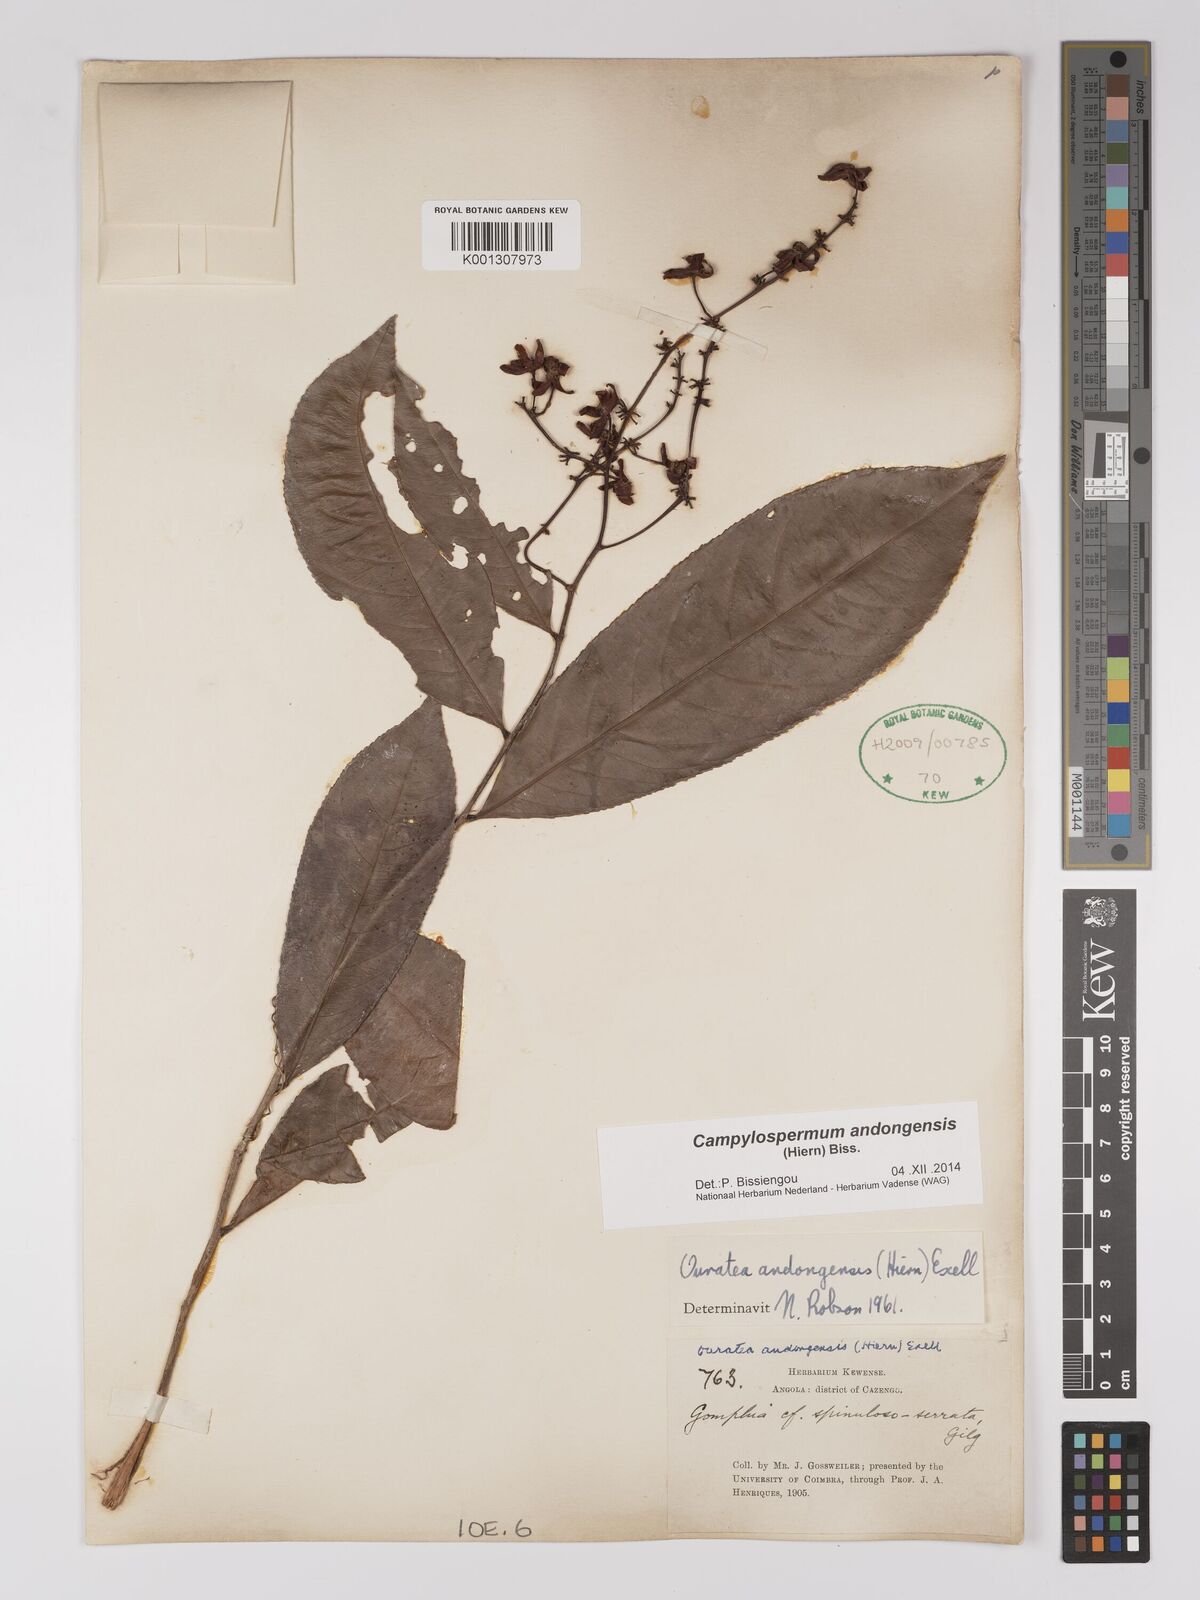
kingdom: Plantae
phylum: Tracheophyta
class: Magnoliopsida
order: Malpighiales
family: Ochnaceae
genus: Campylospermum
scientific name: Campylospermum
